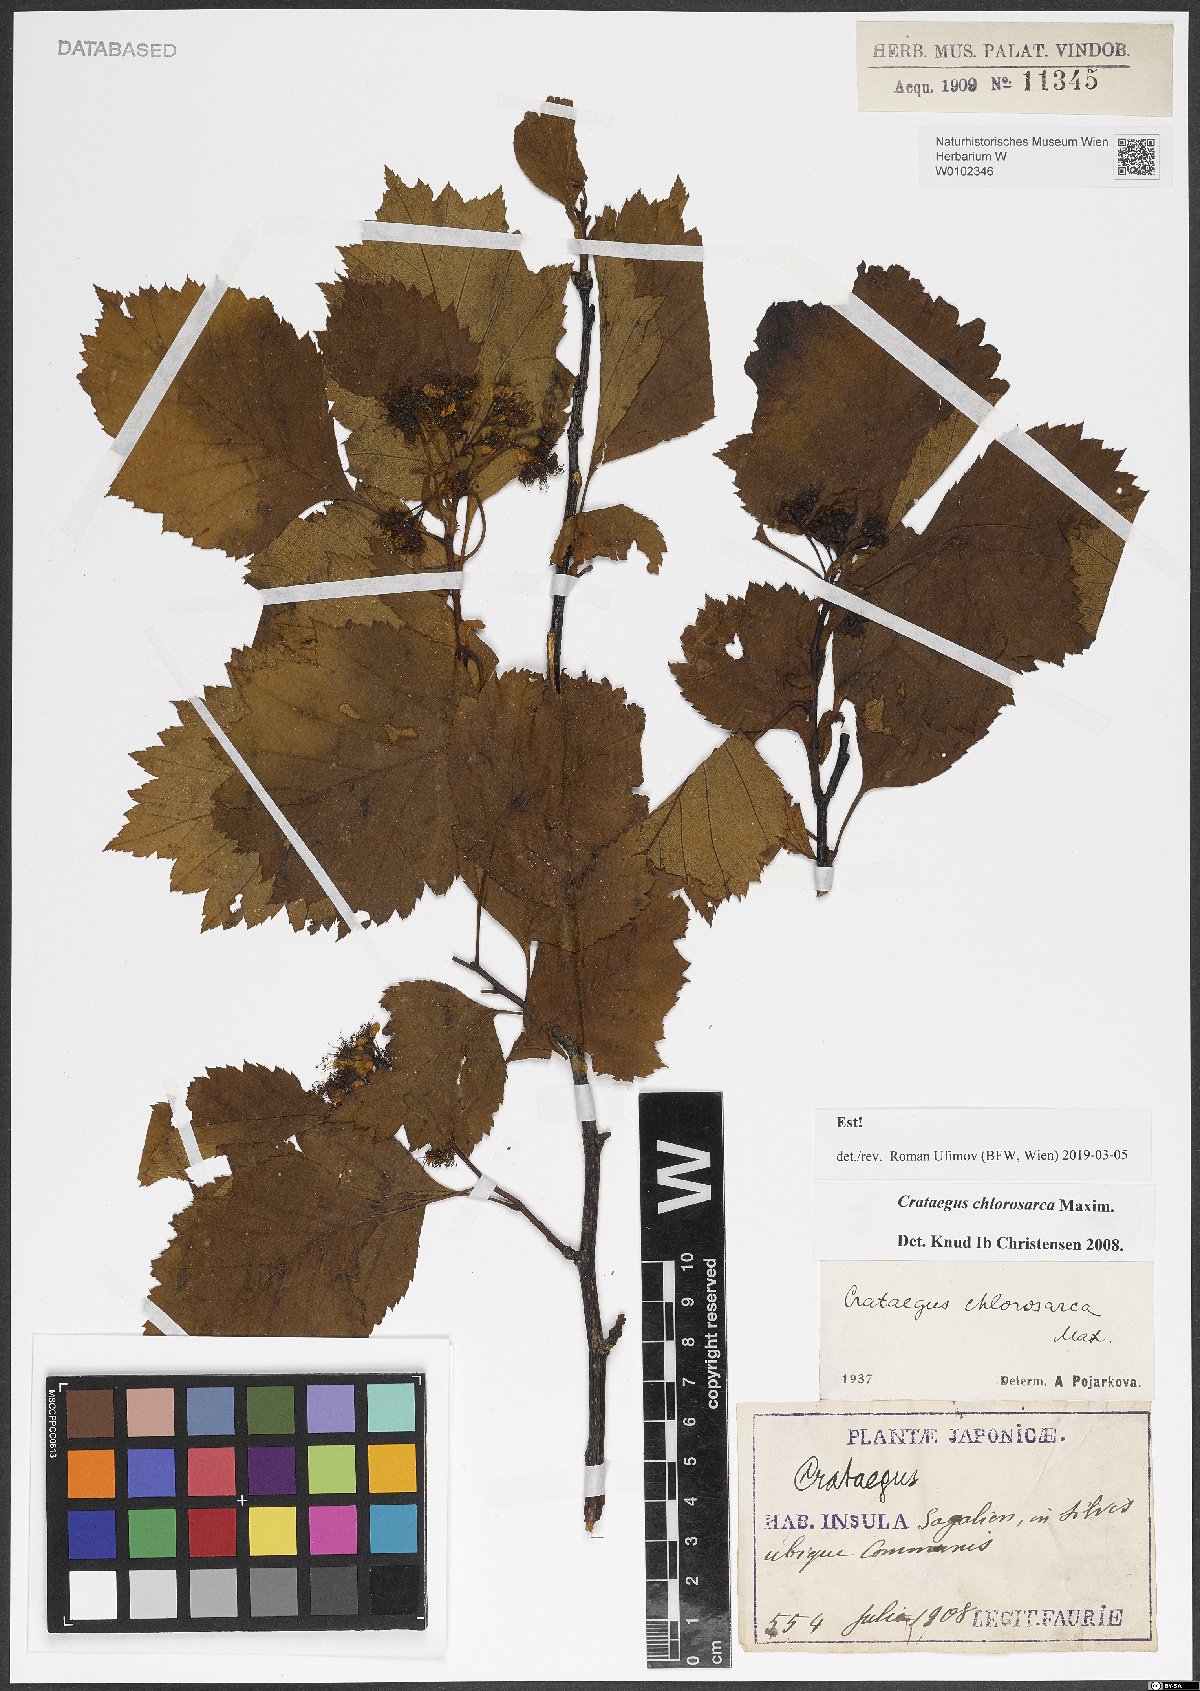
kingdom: Plantae
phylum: Tracheophyta
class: Magnoliopsida
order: Rosales
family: Rosaceae
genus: Crataegus
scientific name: Crataegus chlorosarca
